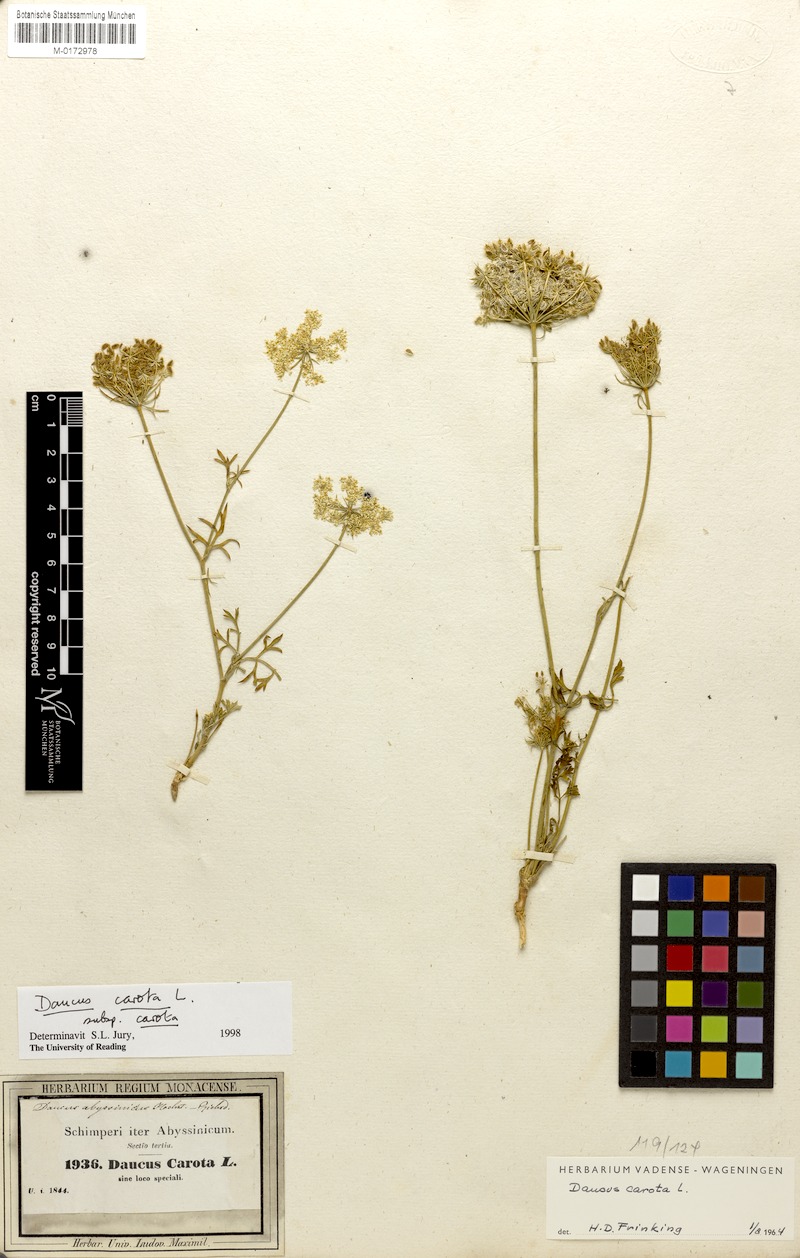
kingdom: Plantae
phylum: Tracheophyta
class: Magnoliopsida
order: Apiales
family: Apiaceae
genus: Daucus
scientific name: Daucus carota
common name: Wild carrot
